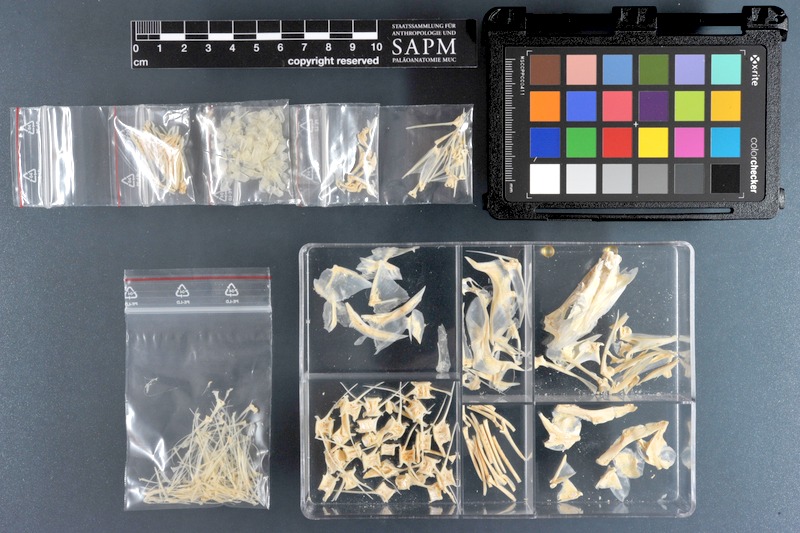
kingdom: Animalia
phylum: Chordata
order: Perciformes
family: Polynemidae
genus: Polydactylus
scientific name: Polydactylus plebeius
